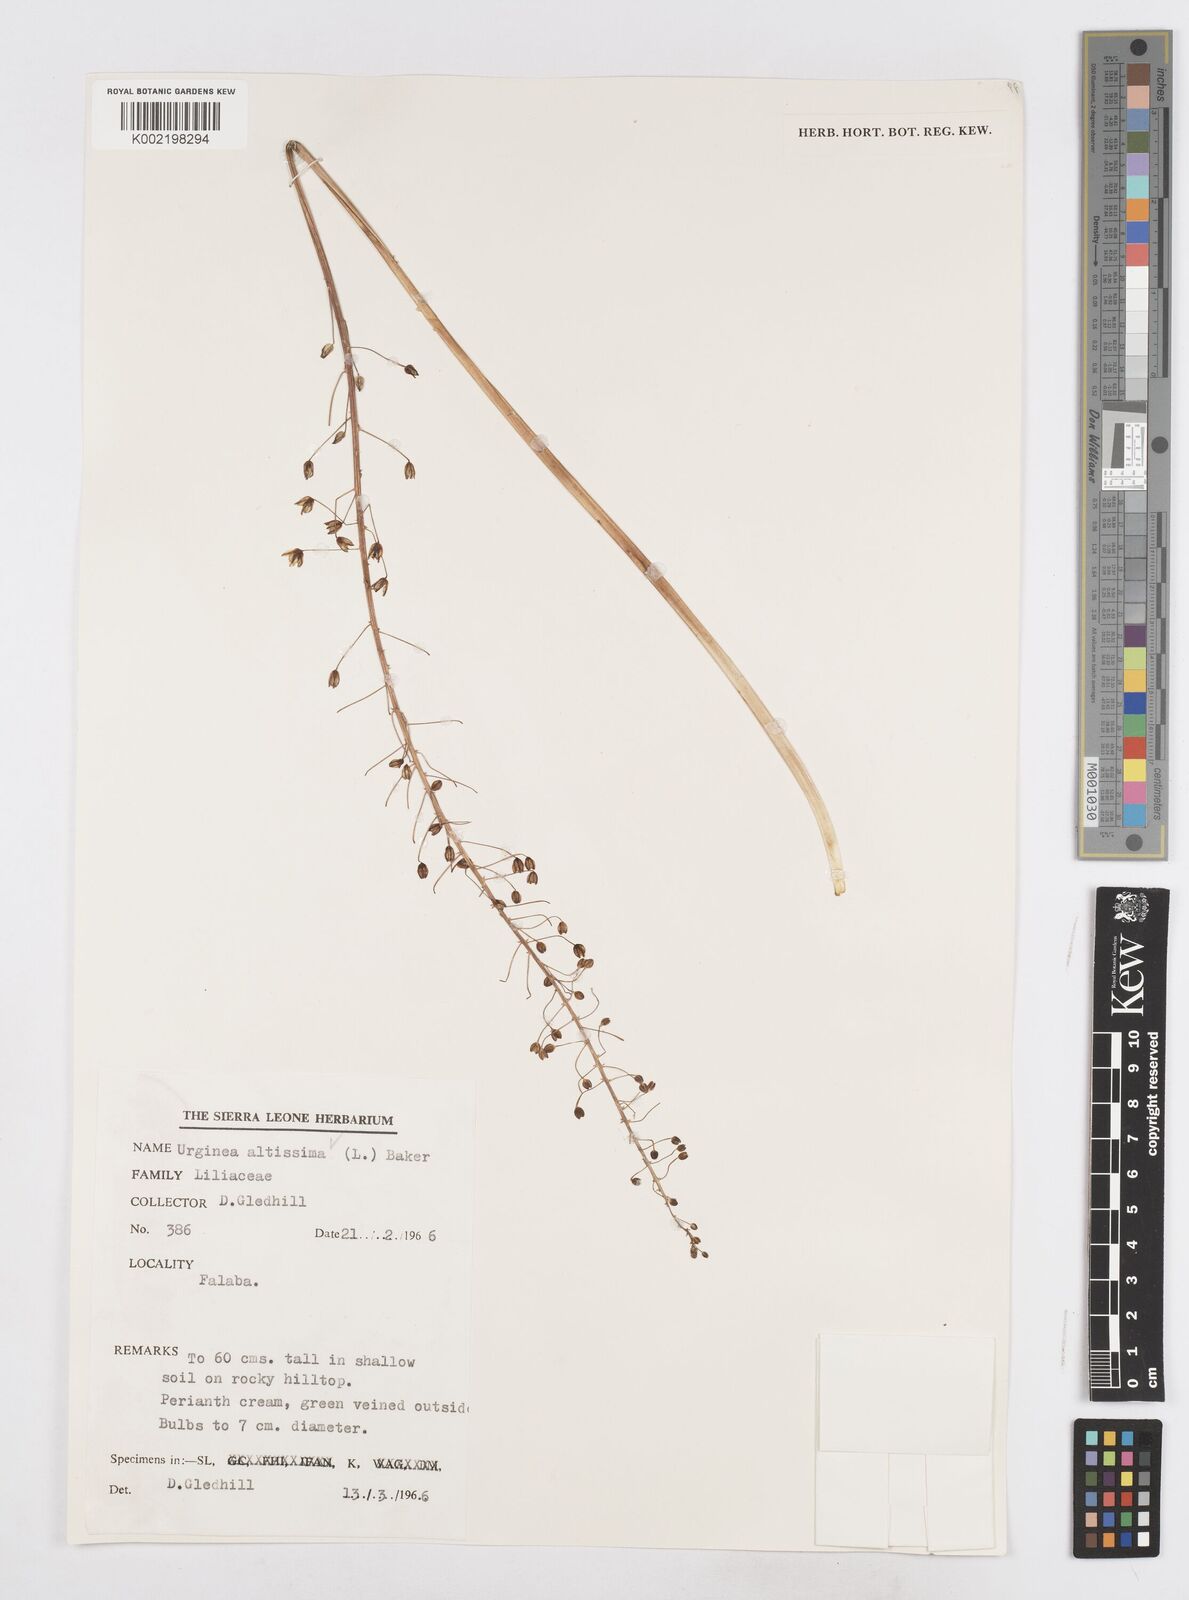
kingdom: Plantae
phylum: Tracheophyta
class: Liliopsida
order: Asparagales
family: Asparagaceae
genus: Drimia
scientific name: Drimia altissima
